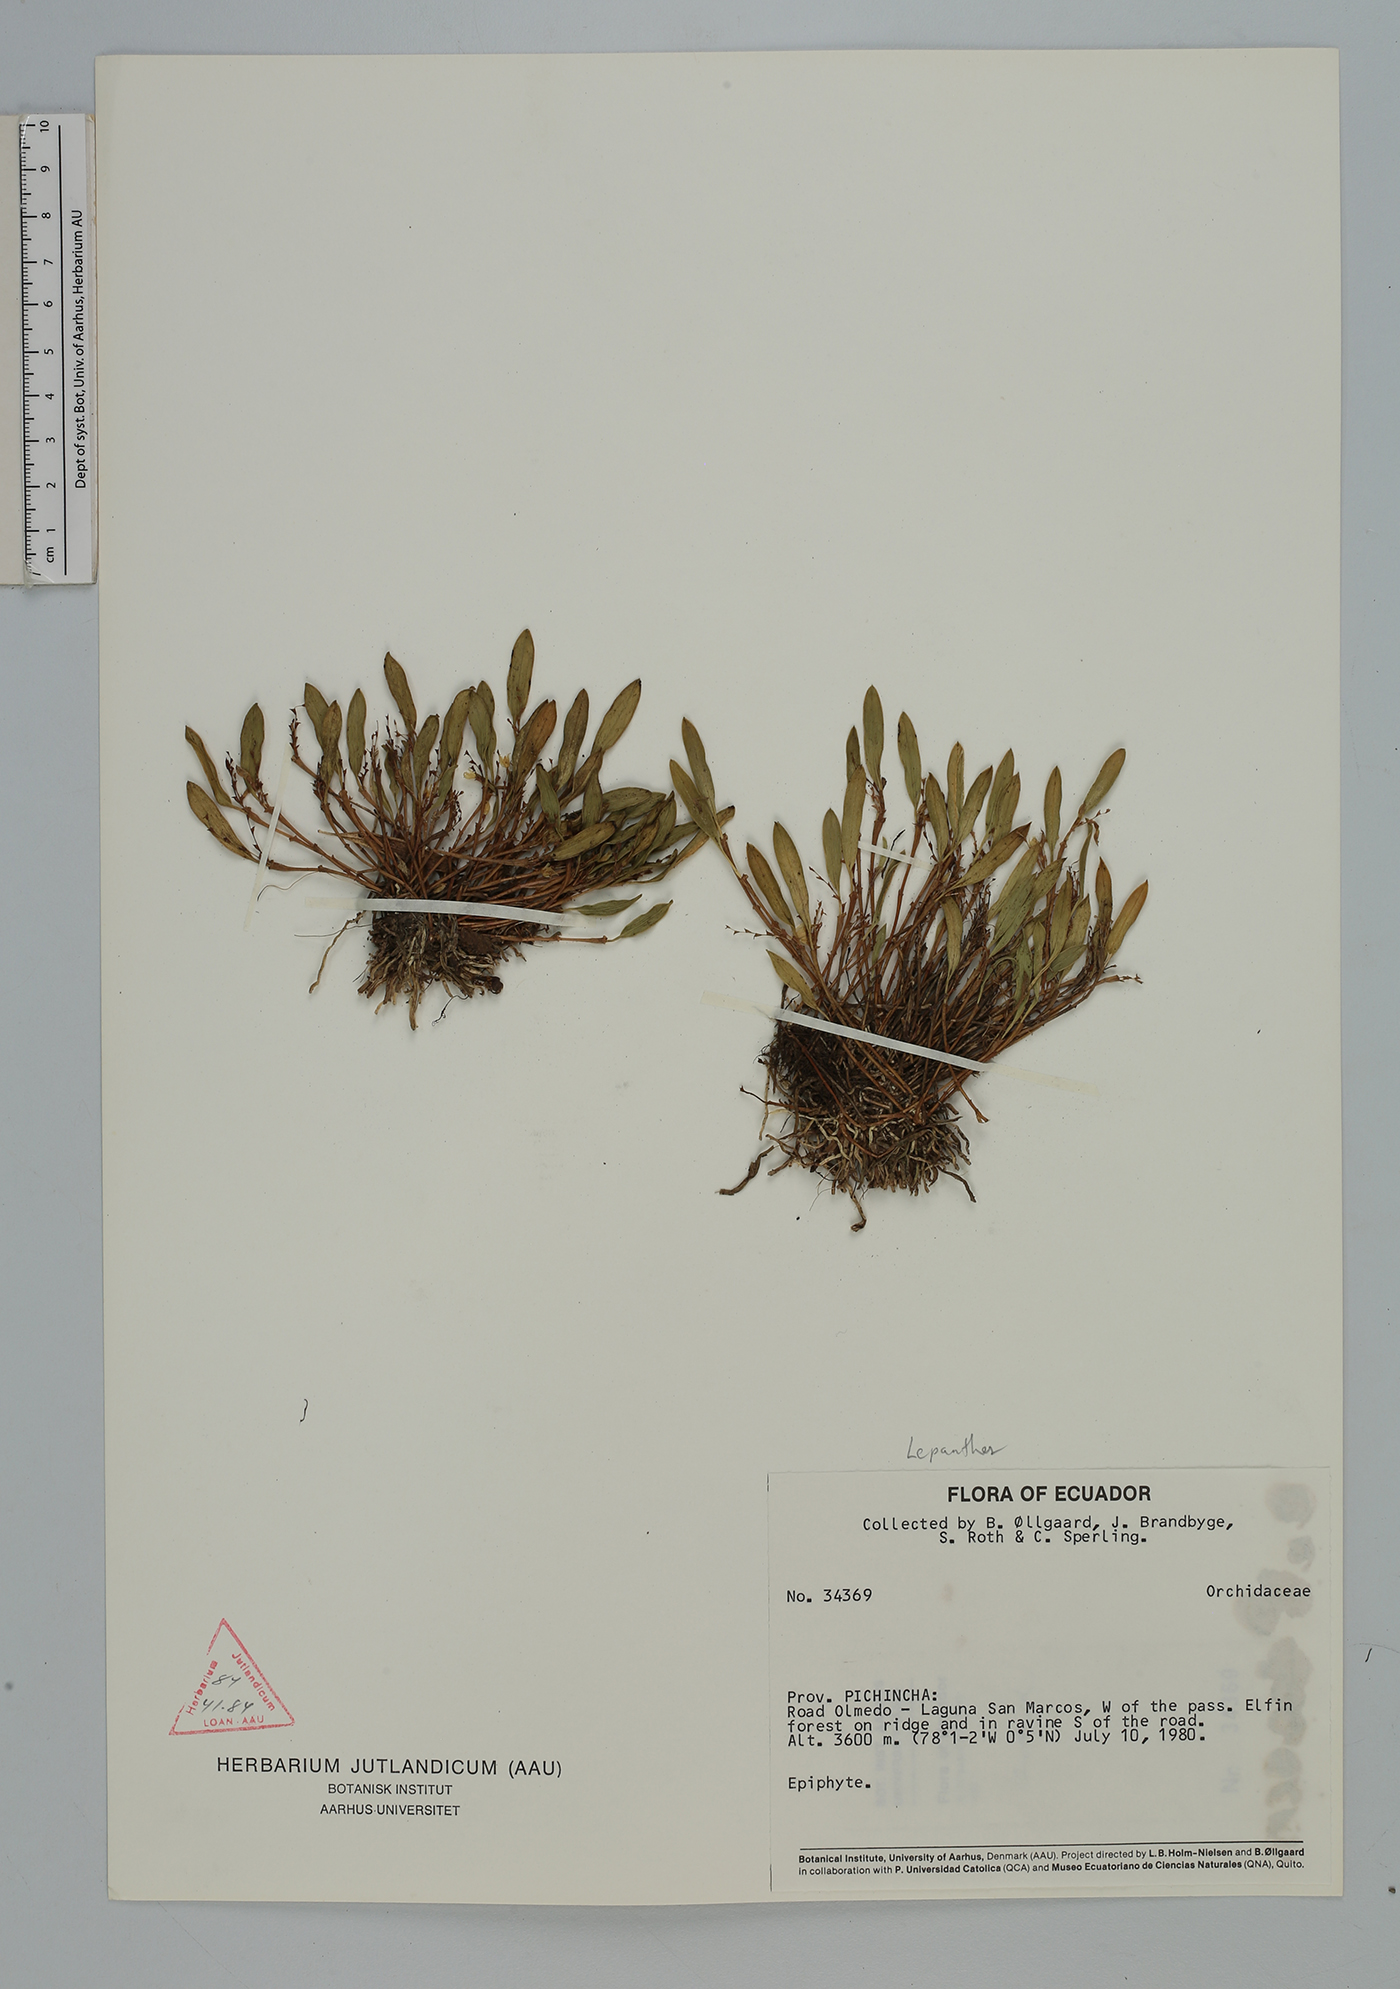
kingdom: Plantae
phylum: Tracheophyta
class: Liliopsida
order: Asparagales
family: Orchidaceae
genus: Trichosalpinx
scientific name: Trichosalpinx
